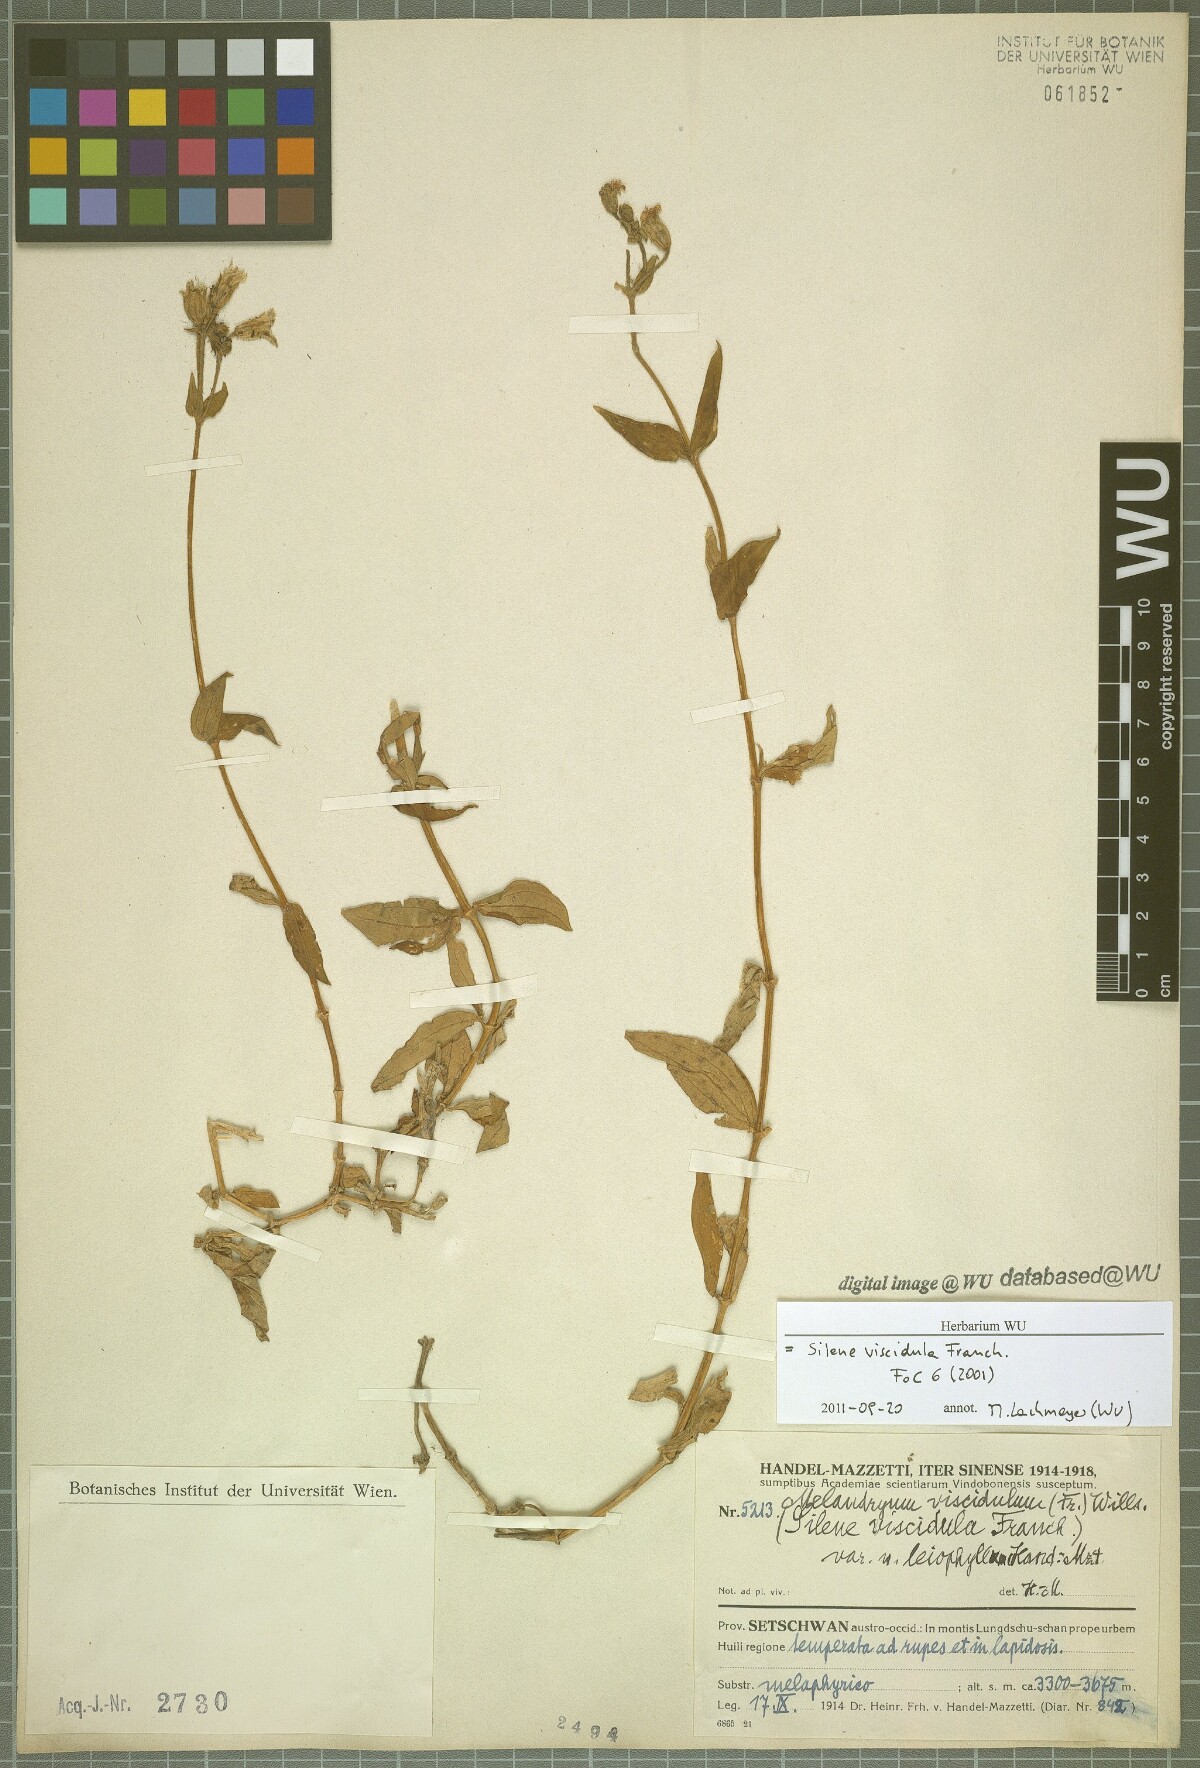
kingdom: Plantae
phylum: Tracheophyta
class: Magnoliopsida
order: Caryophyllales
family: Caryophyllaceae
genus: Silene
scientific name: Silene viscidula
